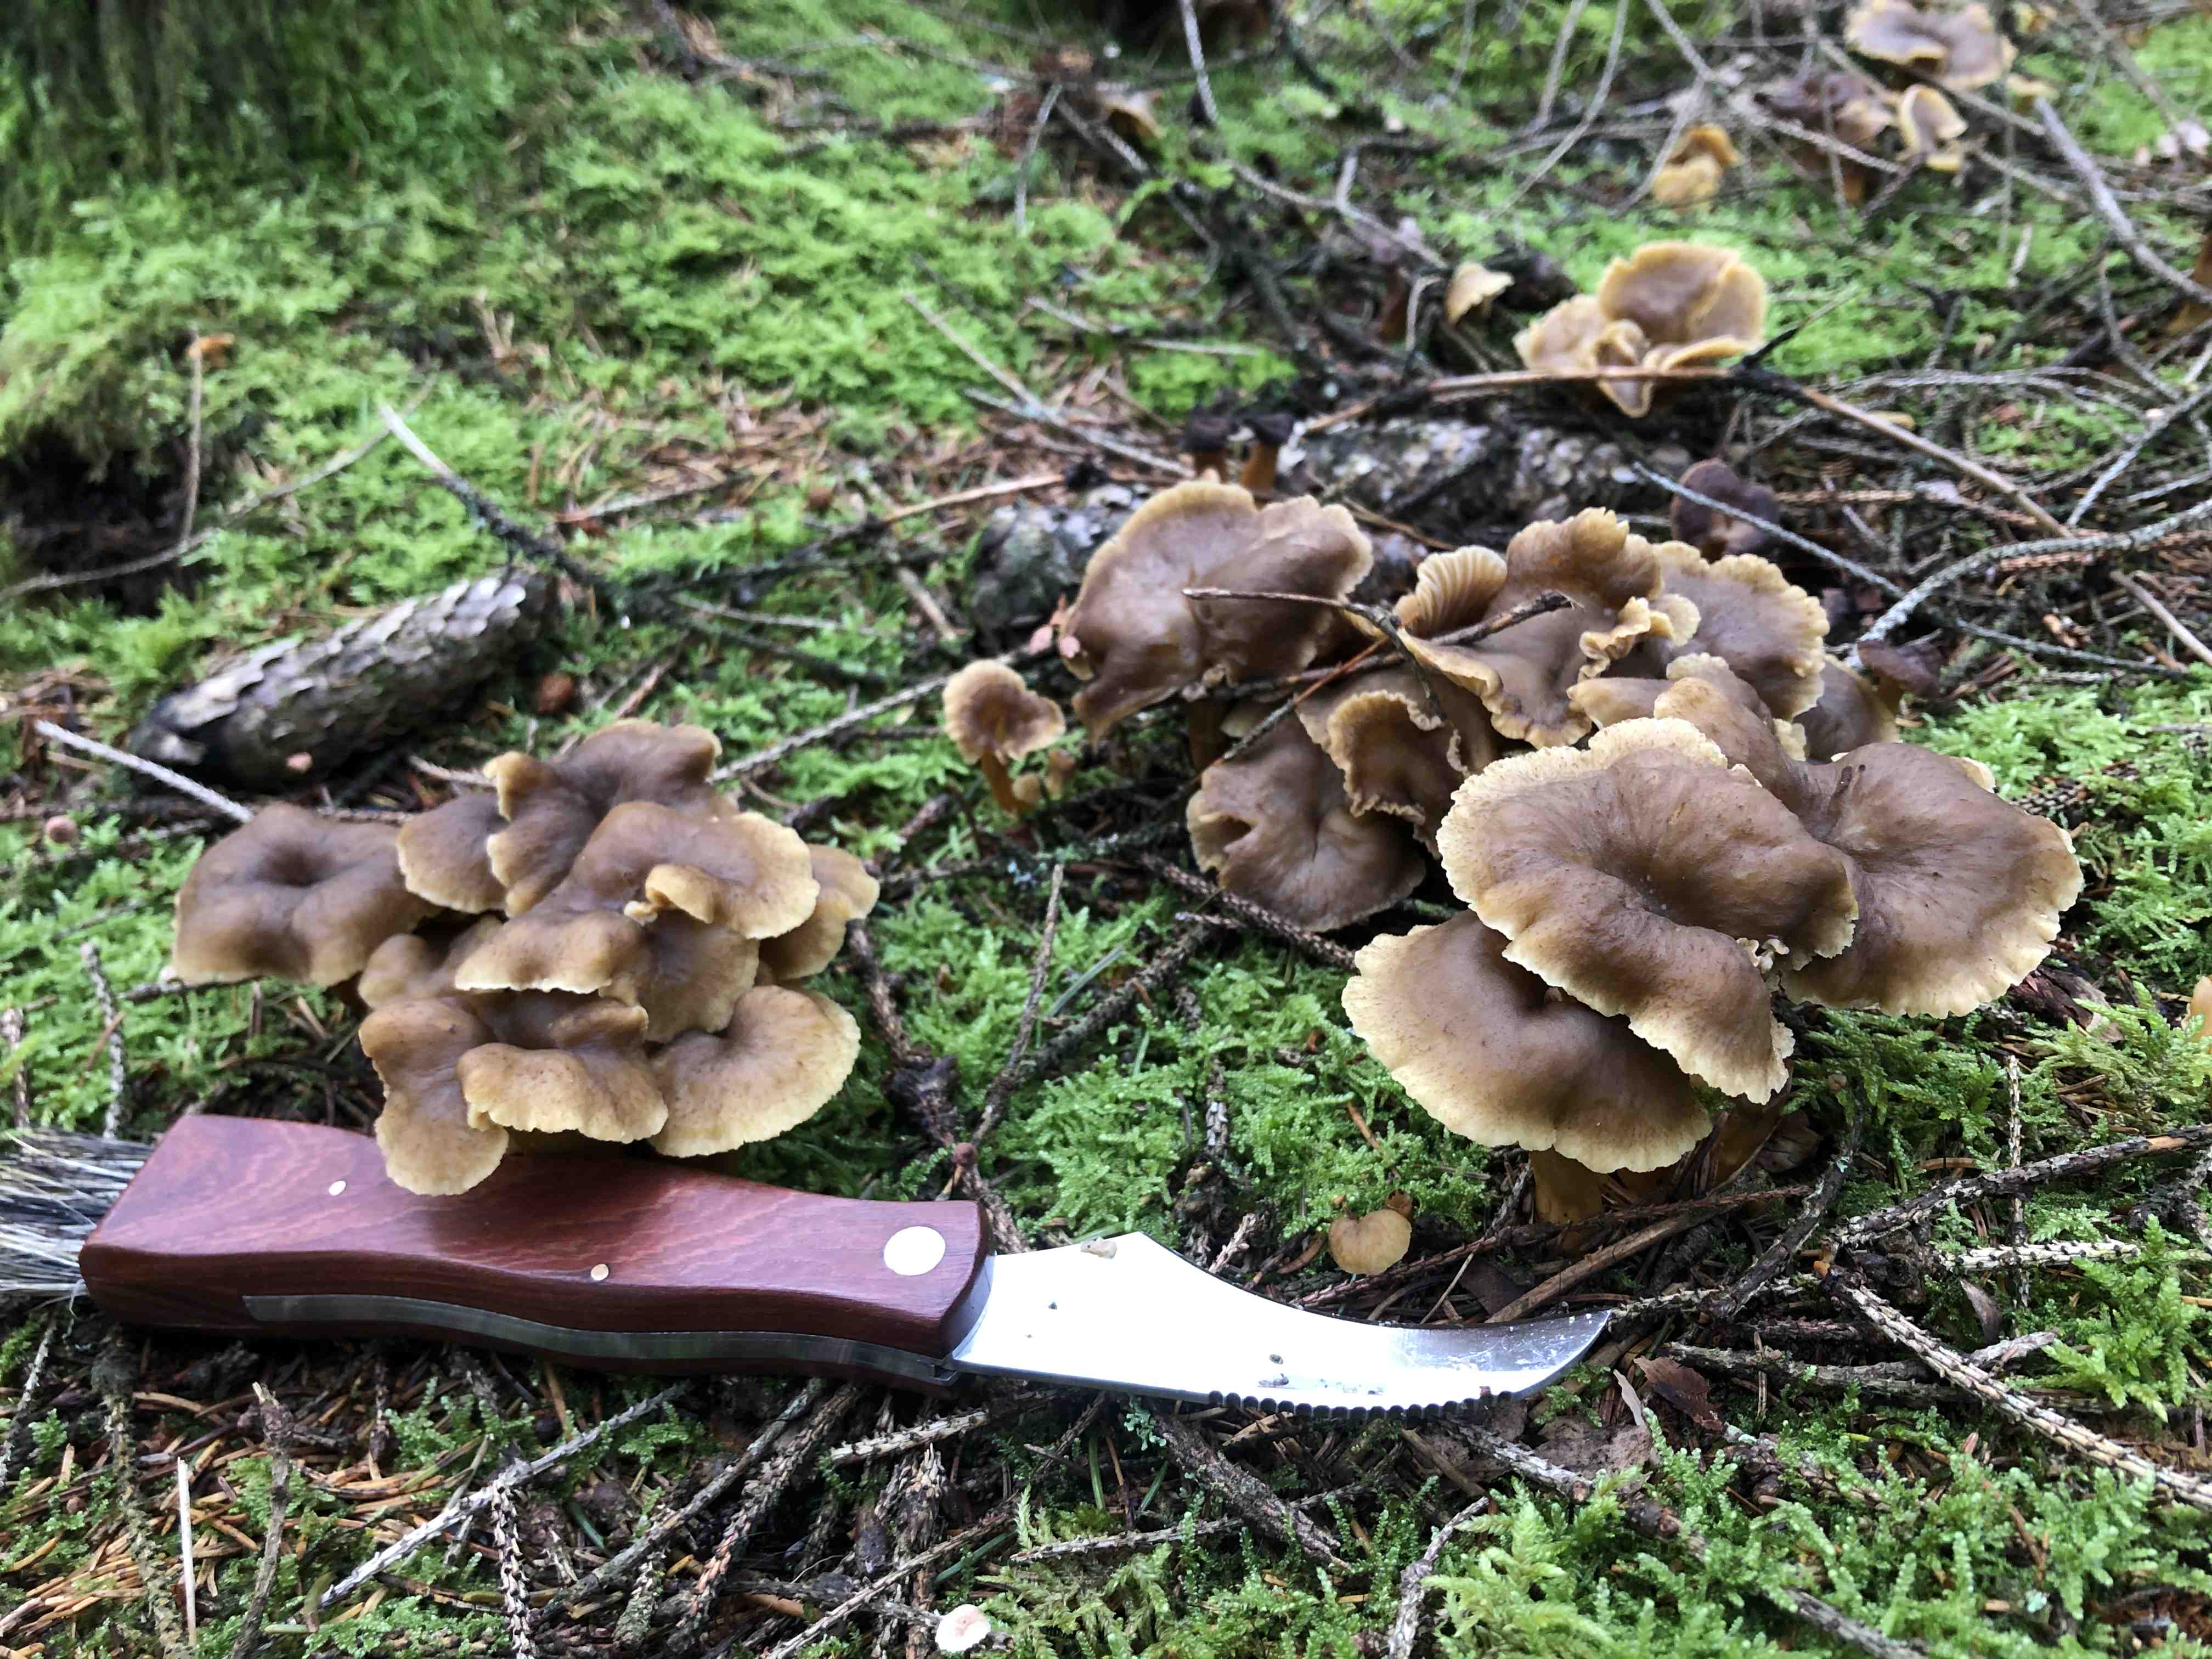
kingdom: Fungi
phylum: Basidiomycota
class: Agaricomycetes
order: Cantharellales
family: Hydnaceae
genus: Craterellus
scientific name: Craterellus tubaeformis
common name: tragt-kantarel
